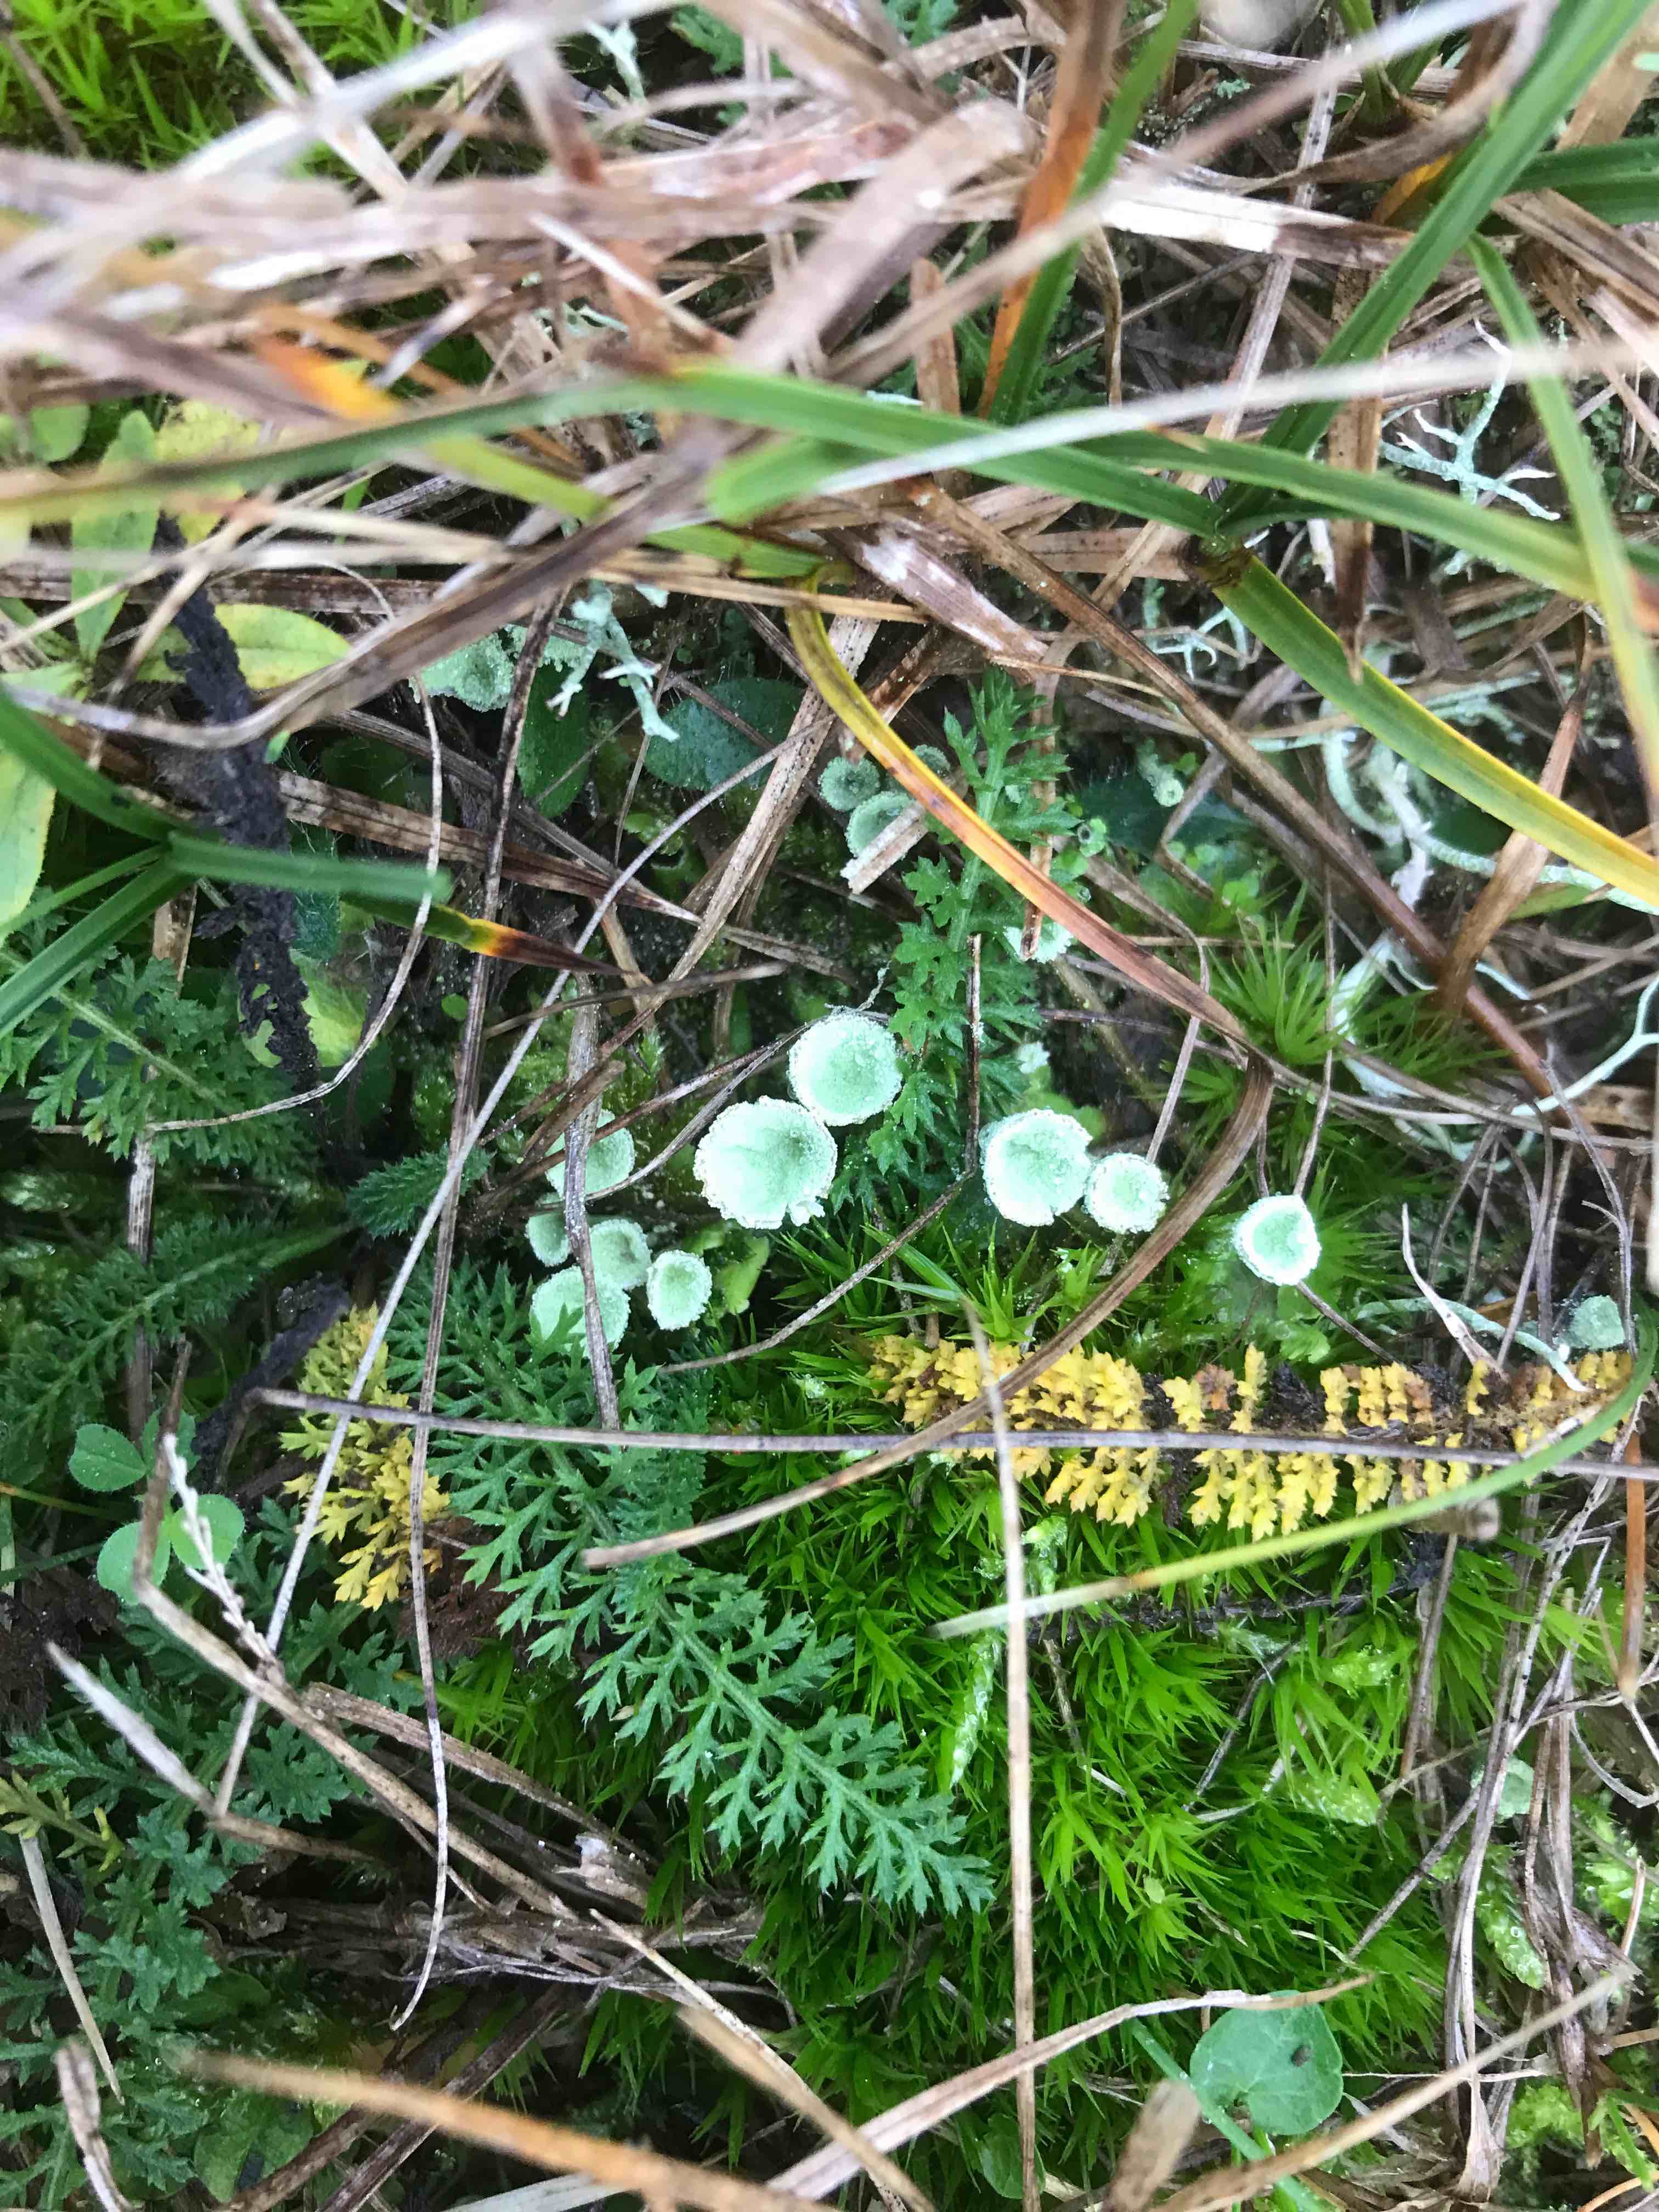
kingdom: Fungi
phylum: Ascomycota
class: Lecanoromycetes
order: Lecanorales
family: Cladoniaceae
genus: Cladonia
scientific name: Cladonia
